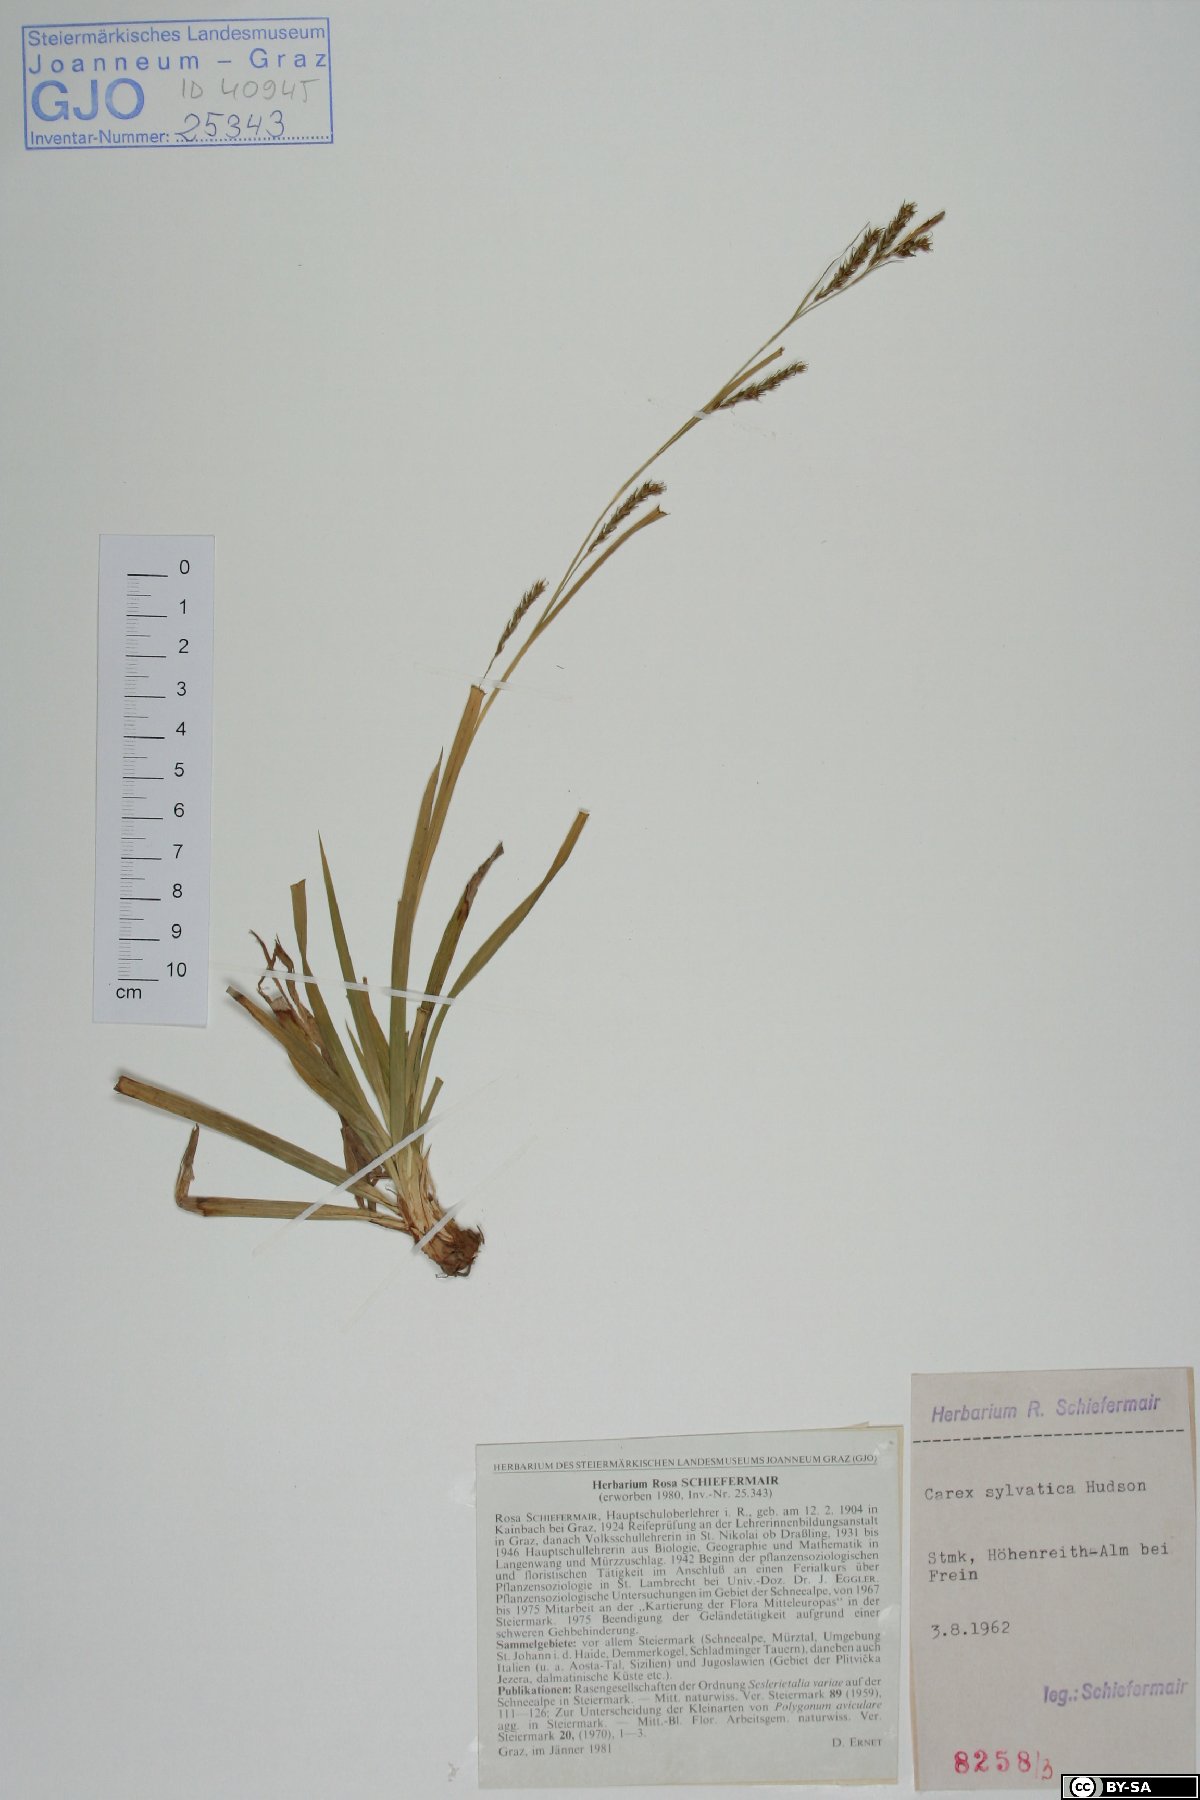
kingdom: Plantae
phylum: Tracheophyta
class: Liliopsida
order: Poales
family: Cyperaceae
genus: Carex
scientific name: Carex sylvatica
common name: Wood-sedge
